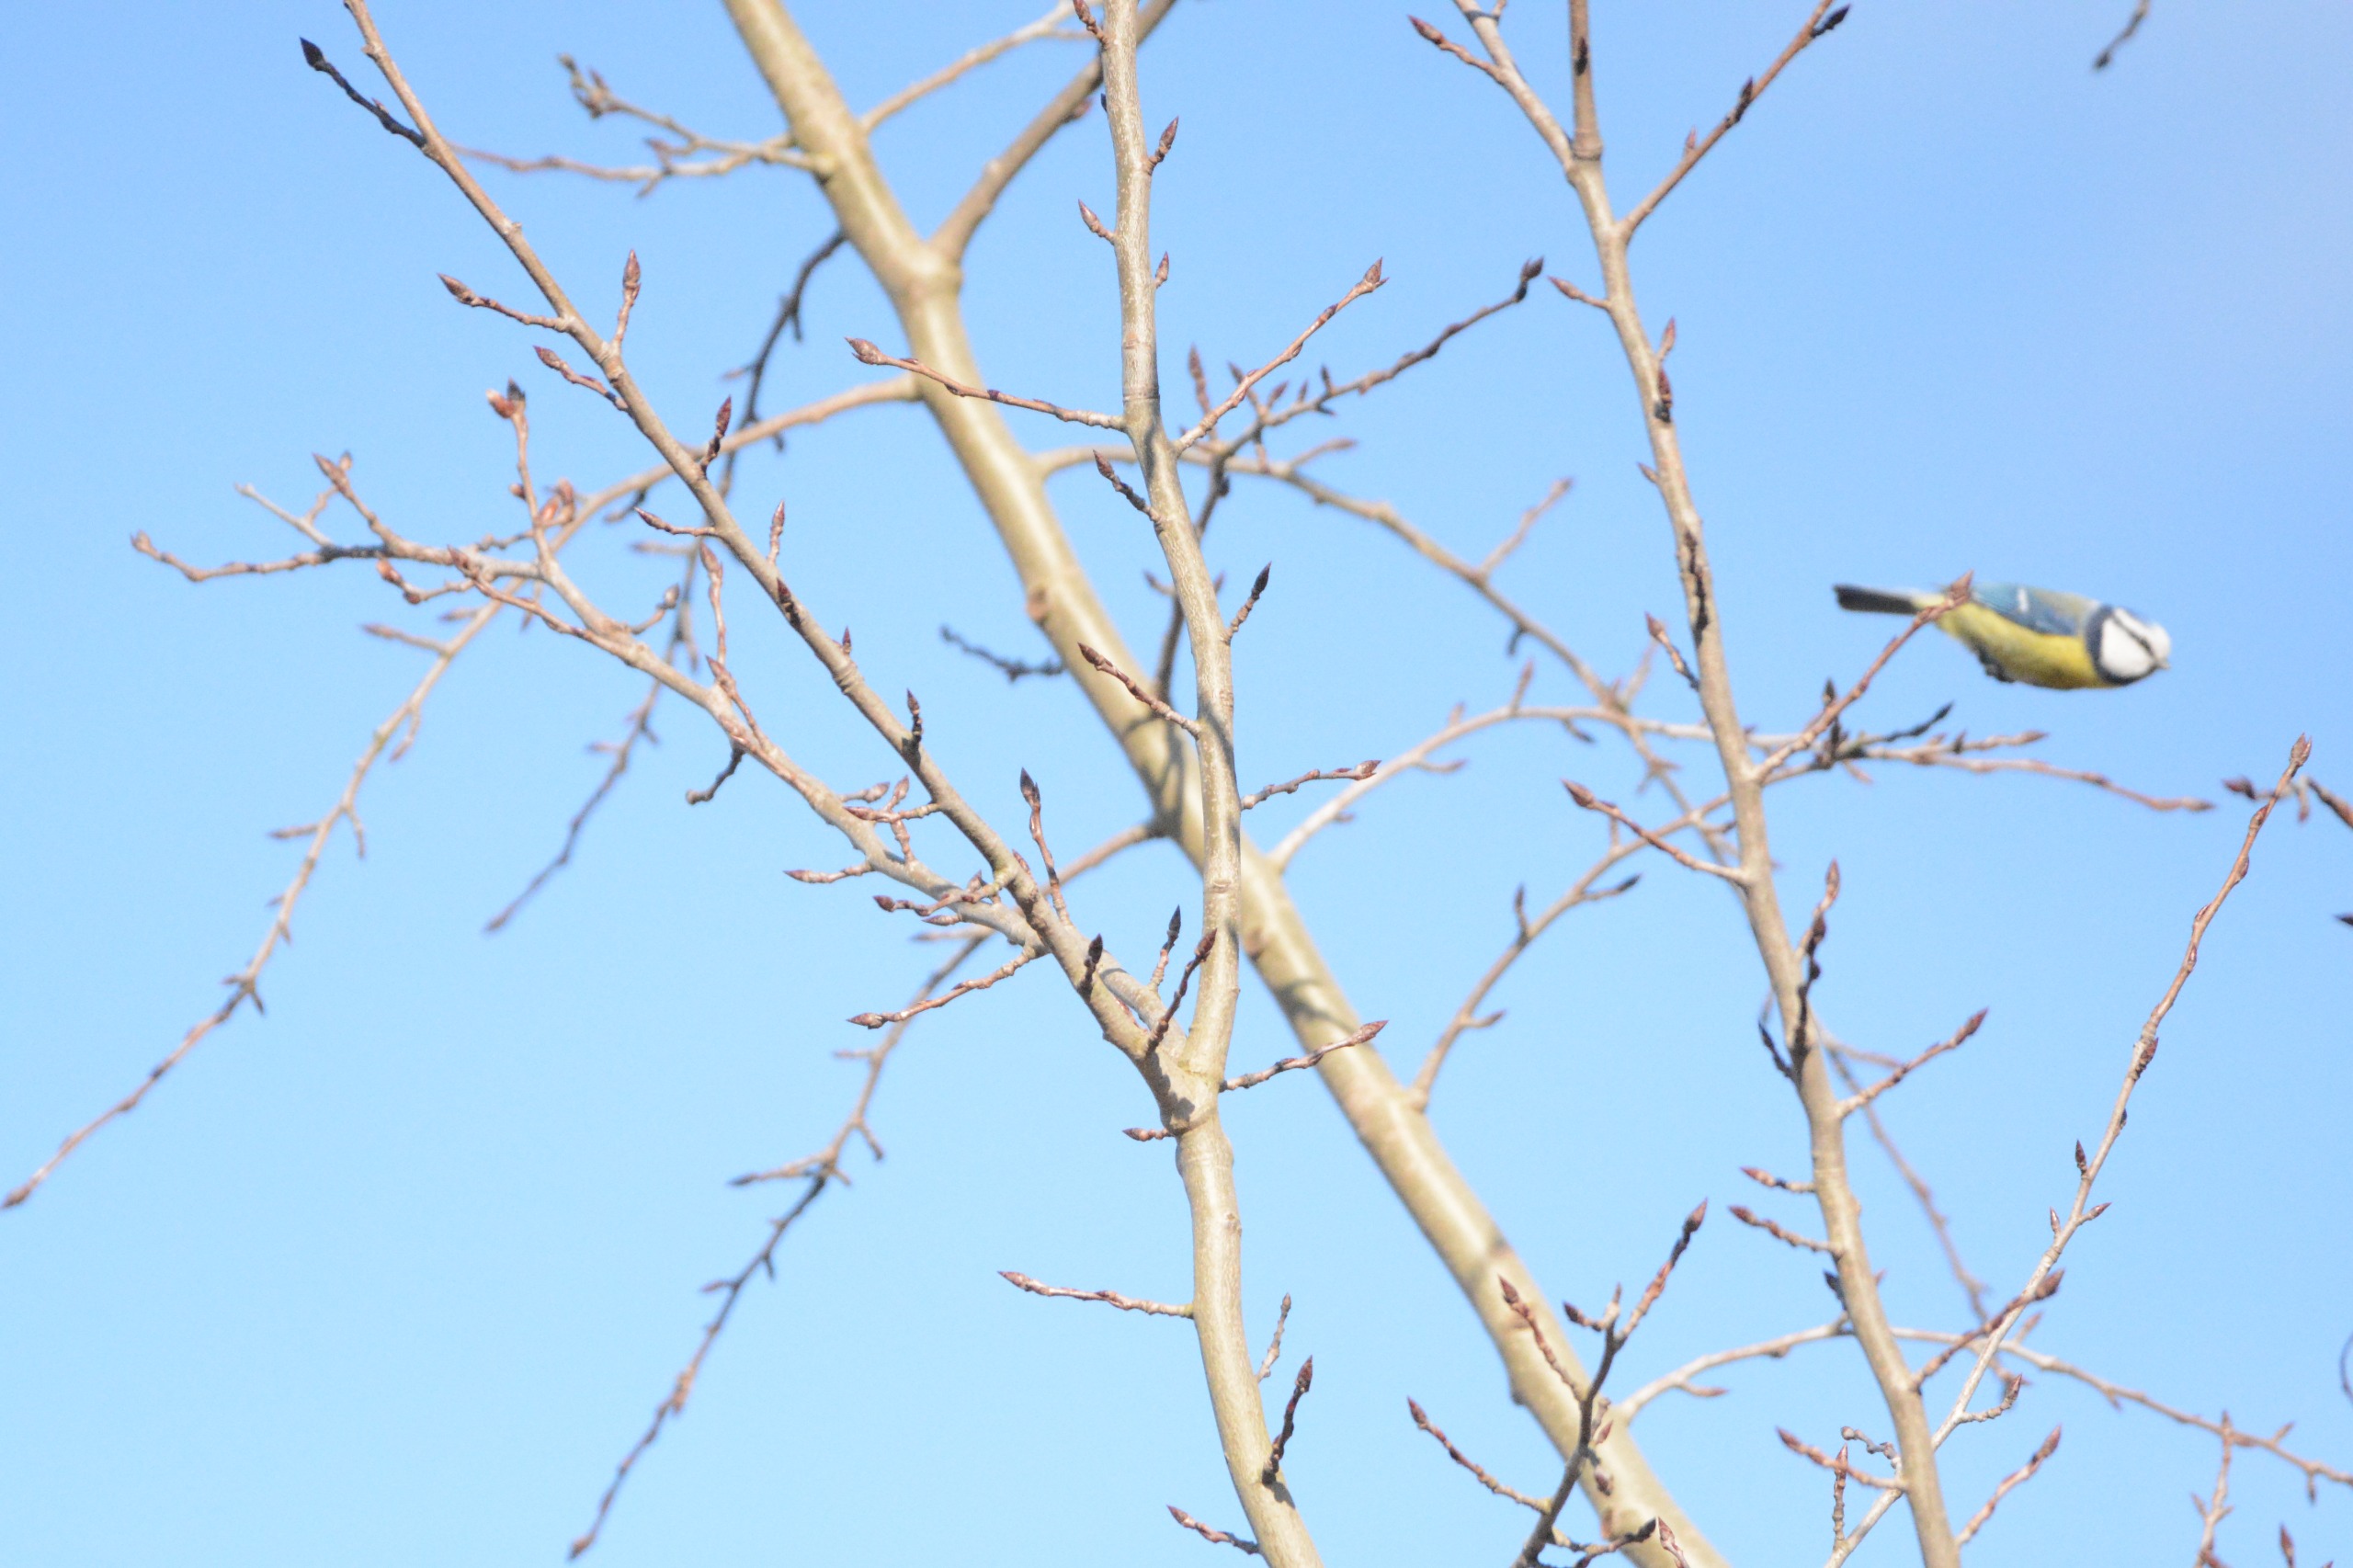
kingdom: Animalia
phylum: Chordata
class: Aves
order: Passeriformes
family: Paridae
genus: Cyanistes
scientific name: Cyanistes caeruleus
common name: Blåmejse
